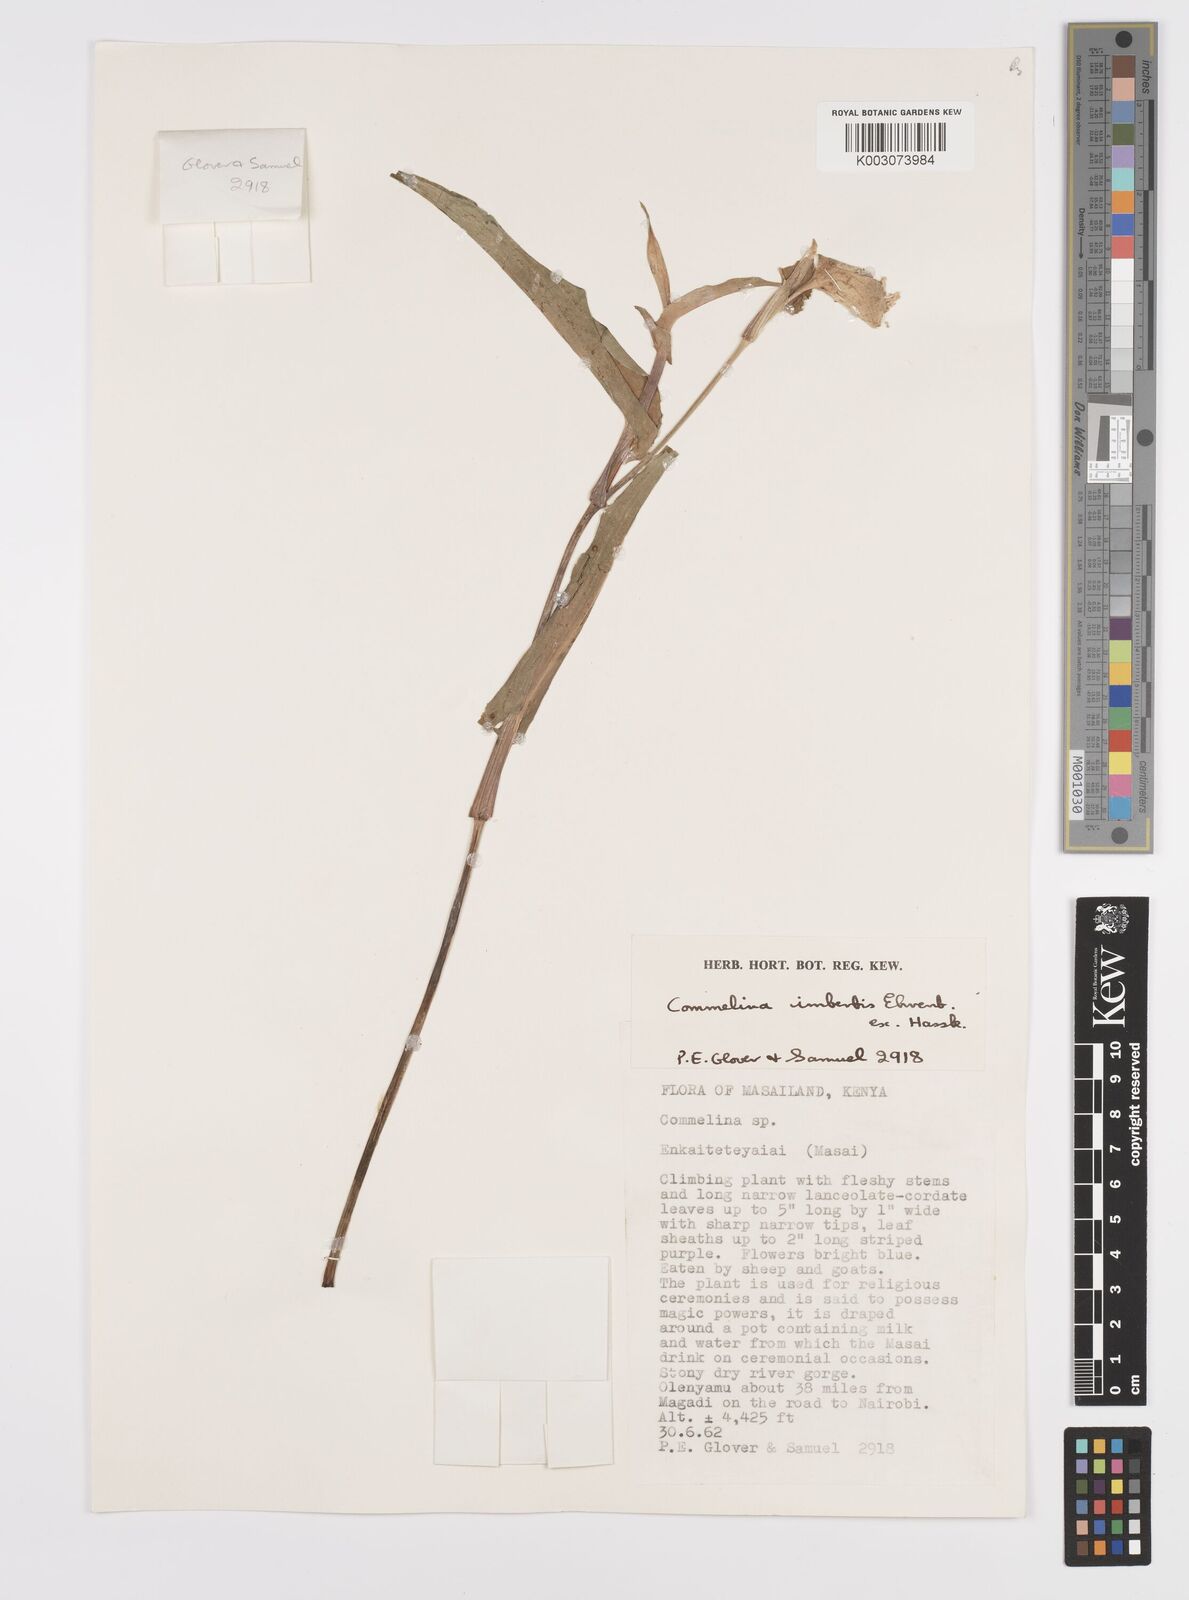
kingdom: Plantae
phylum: Tracheophyta
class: Liliopsida
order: Commelinales
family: Commelinaceae
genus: Commelina
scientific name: Commelina imberbis
